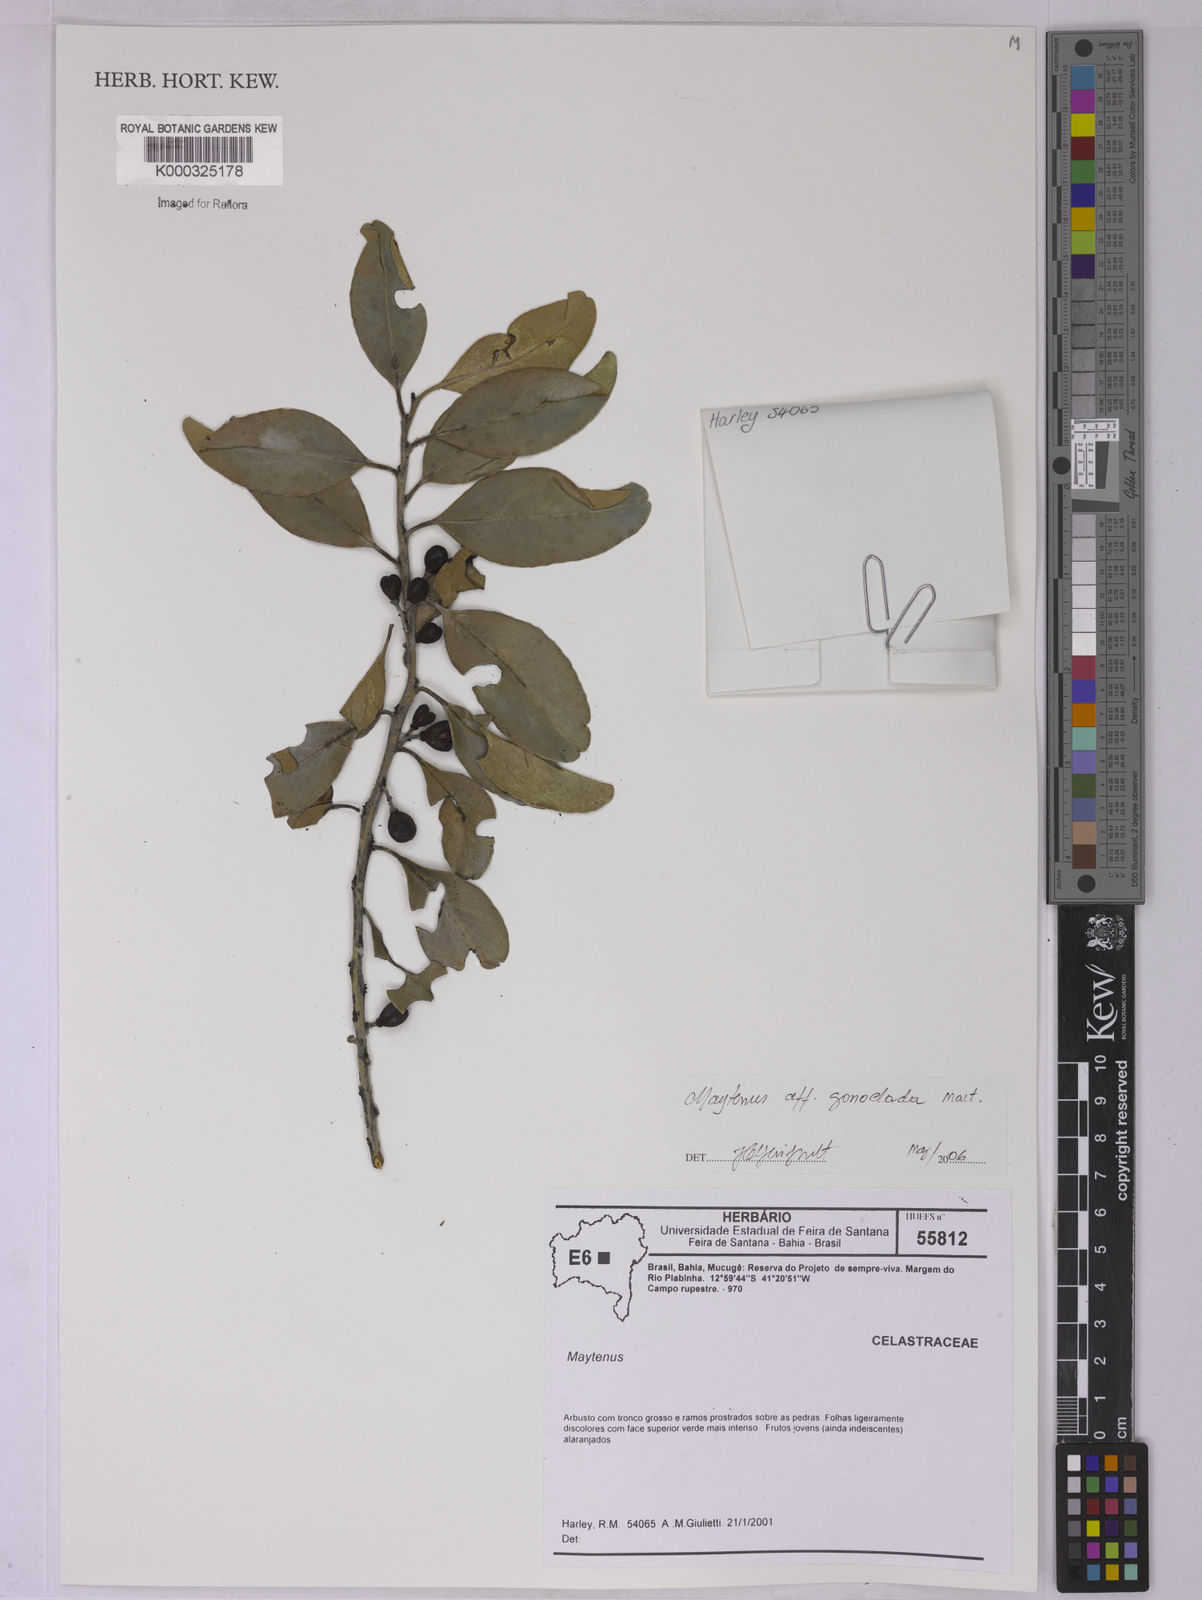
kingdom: Plantae
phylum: Tracheophyta
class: Magnoliopsida
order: Celastrales
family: Celastraceae
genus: Monteverdia
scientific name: Monteverdia gonoclada
